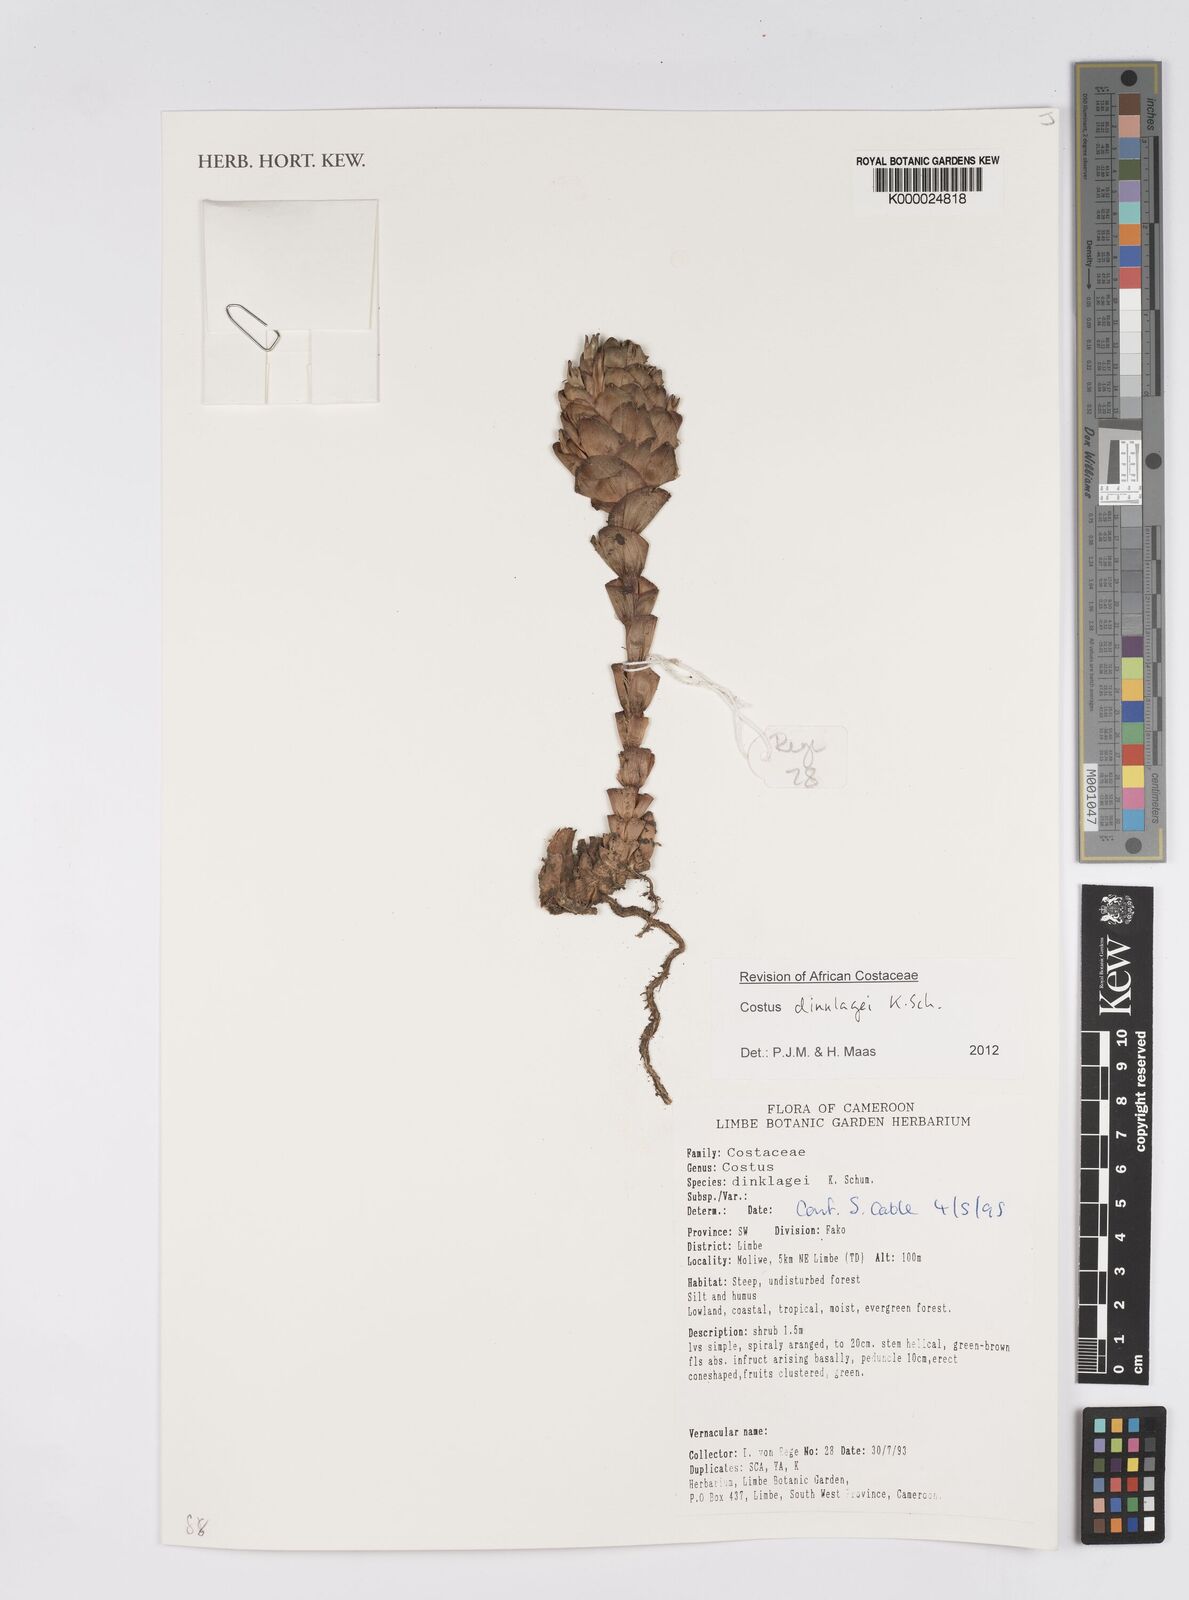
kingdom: Plantae
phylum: Tracheophyta
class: Liliopsida
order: Zingiberales
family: Costaceae
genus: Costus
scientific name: Costus dinklagei
